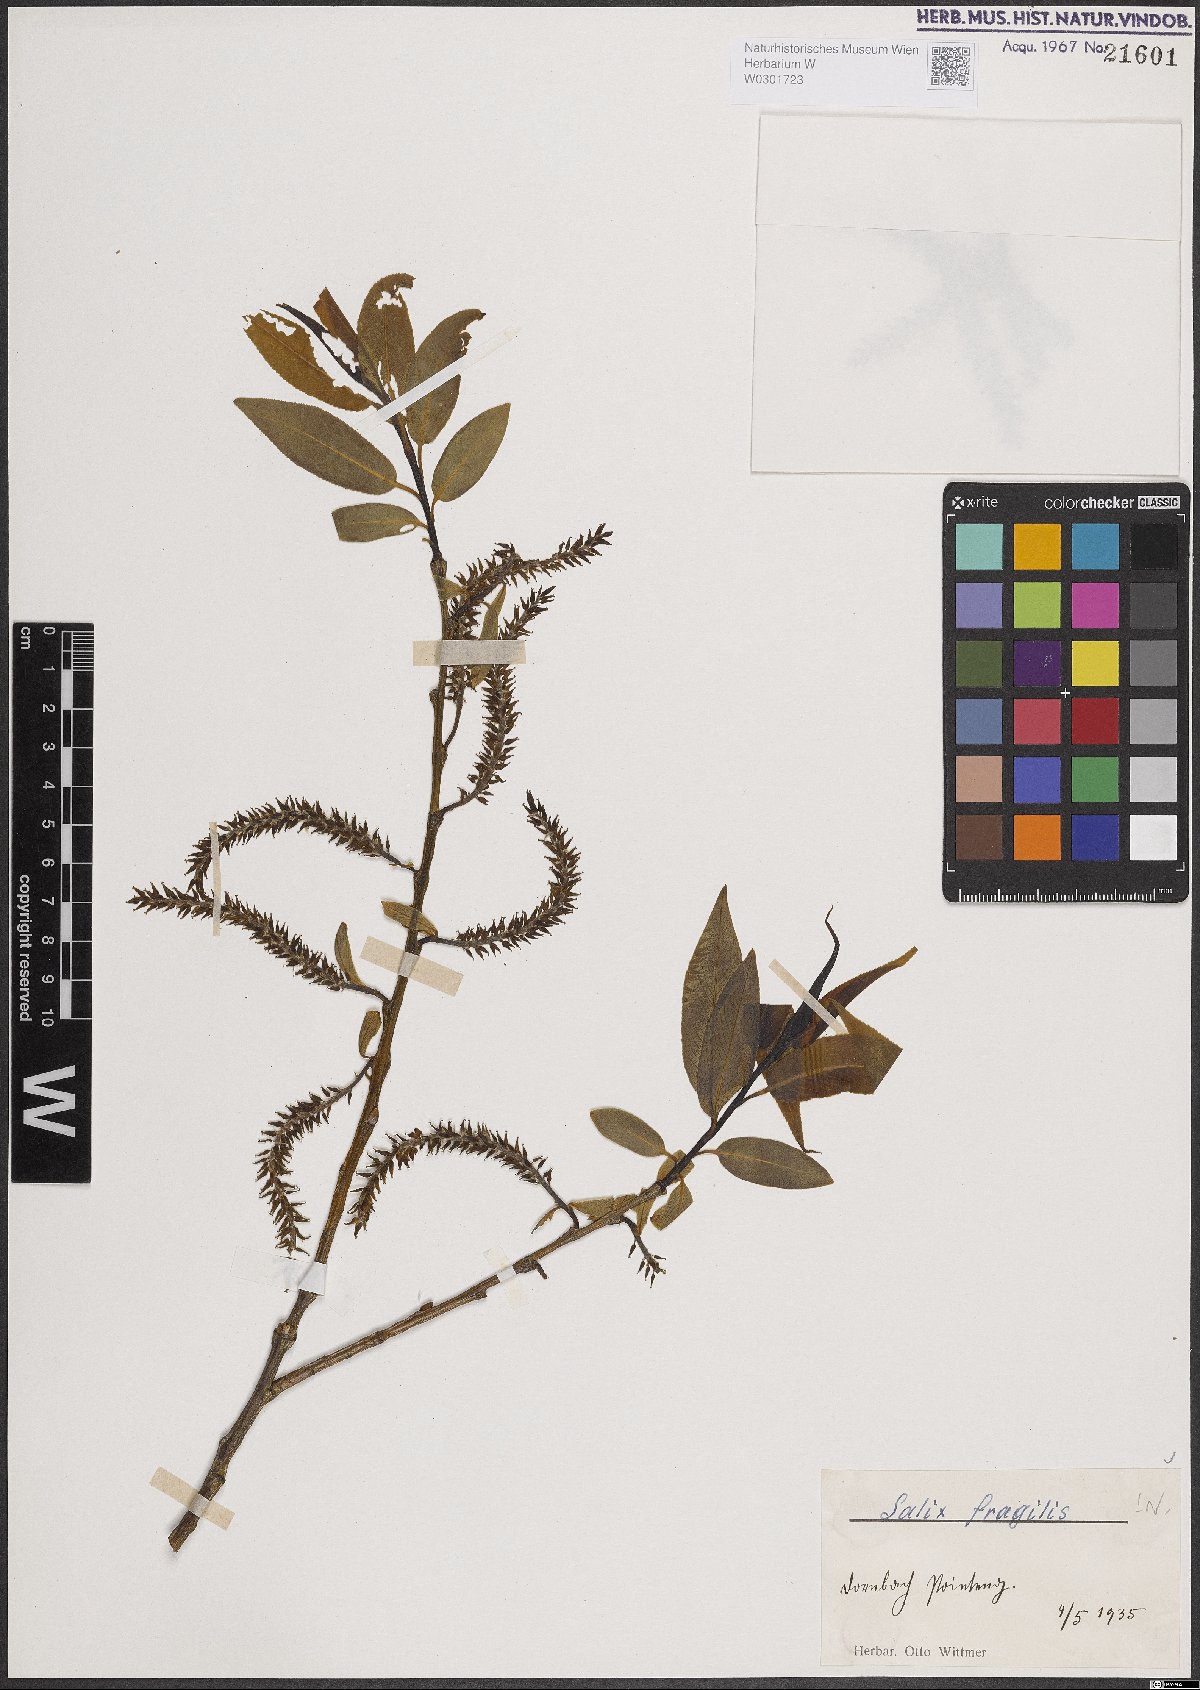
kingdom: Plantae
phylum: Tracheophyta
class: Magnoliopsida
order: Malpighiales
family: Salicaceae
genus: Salix
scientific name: Salix fragilis
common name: Crack willow
